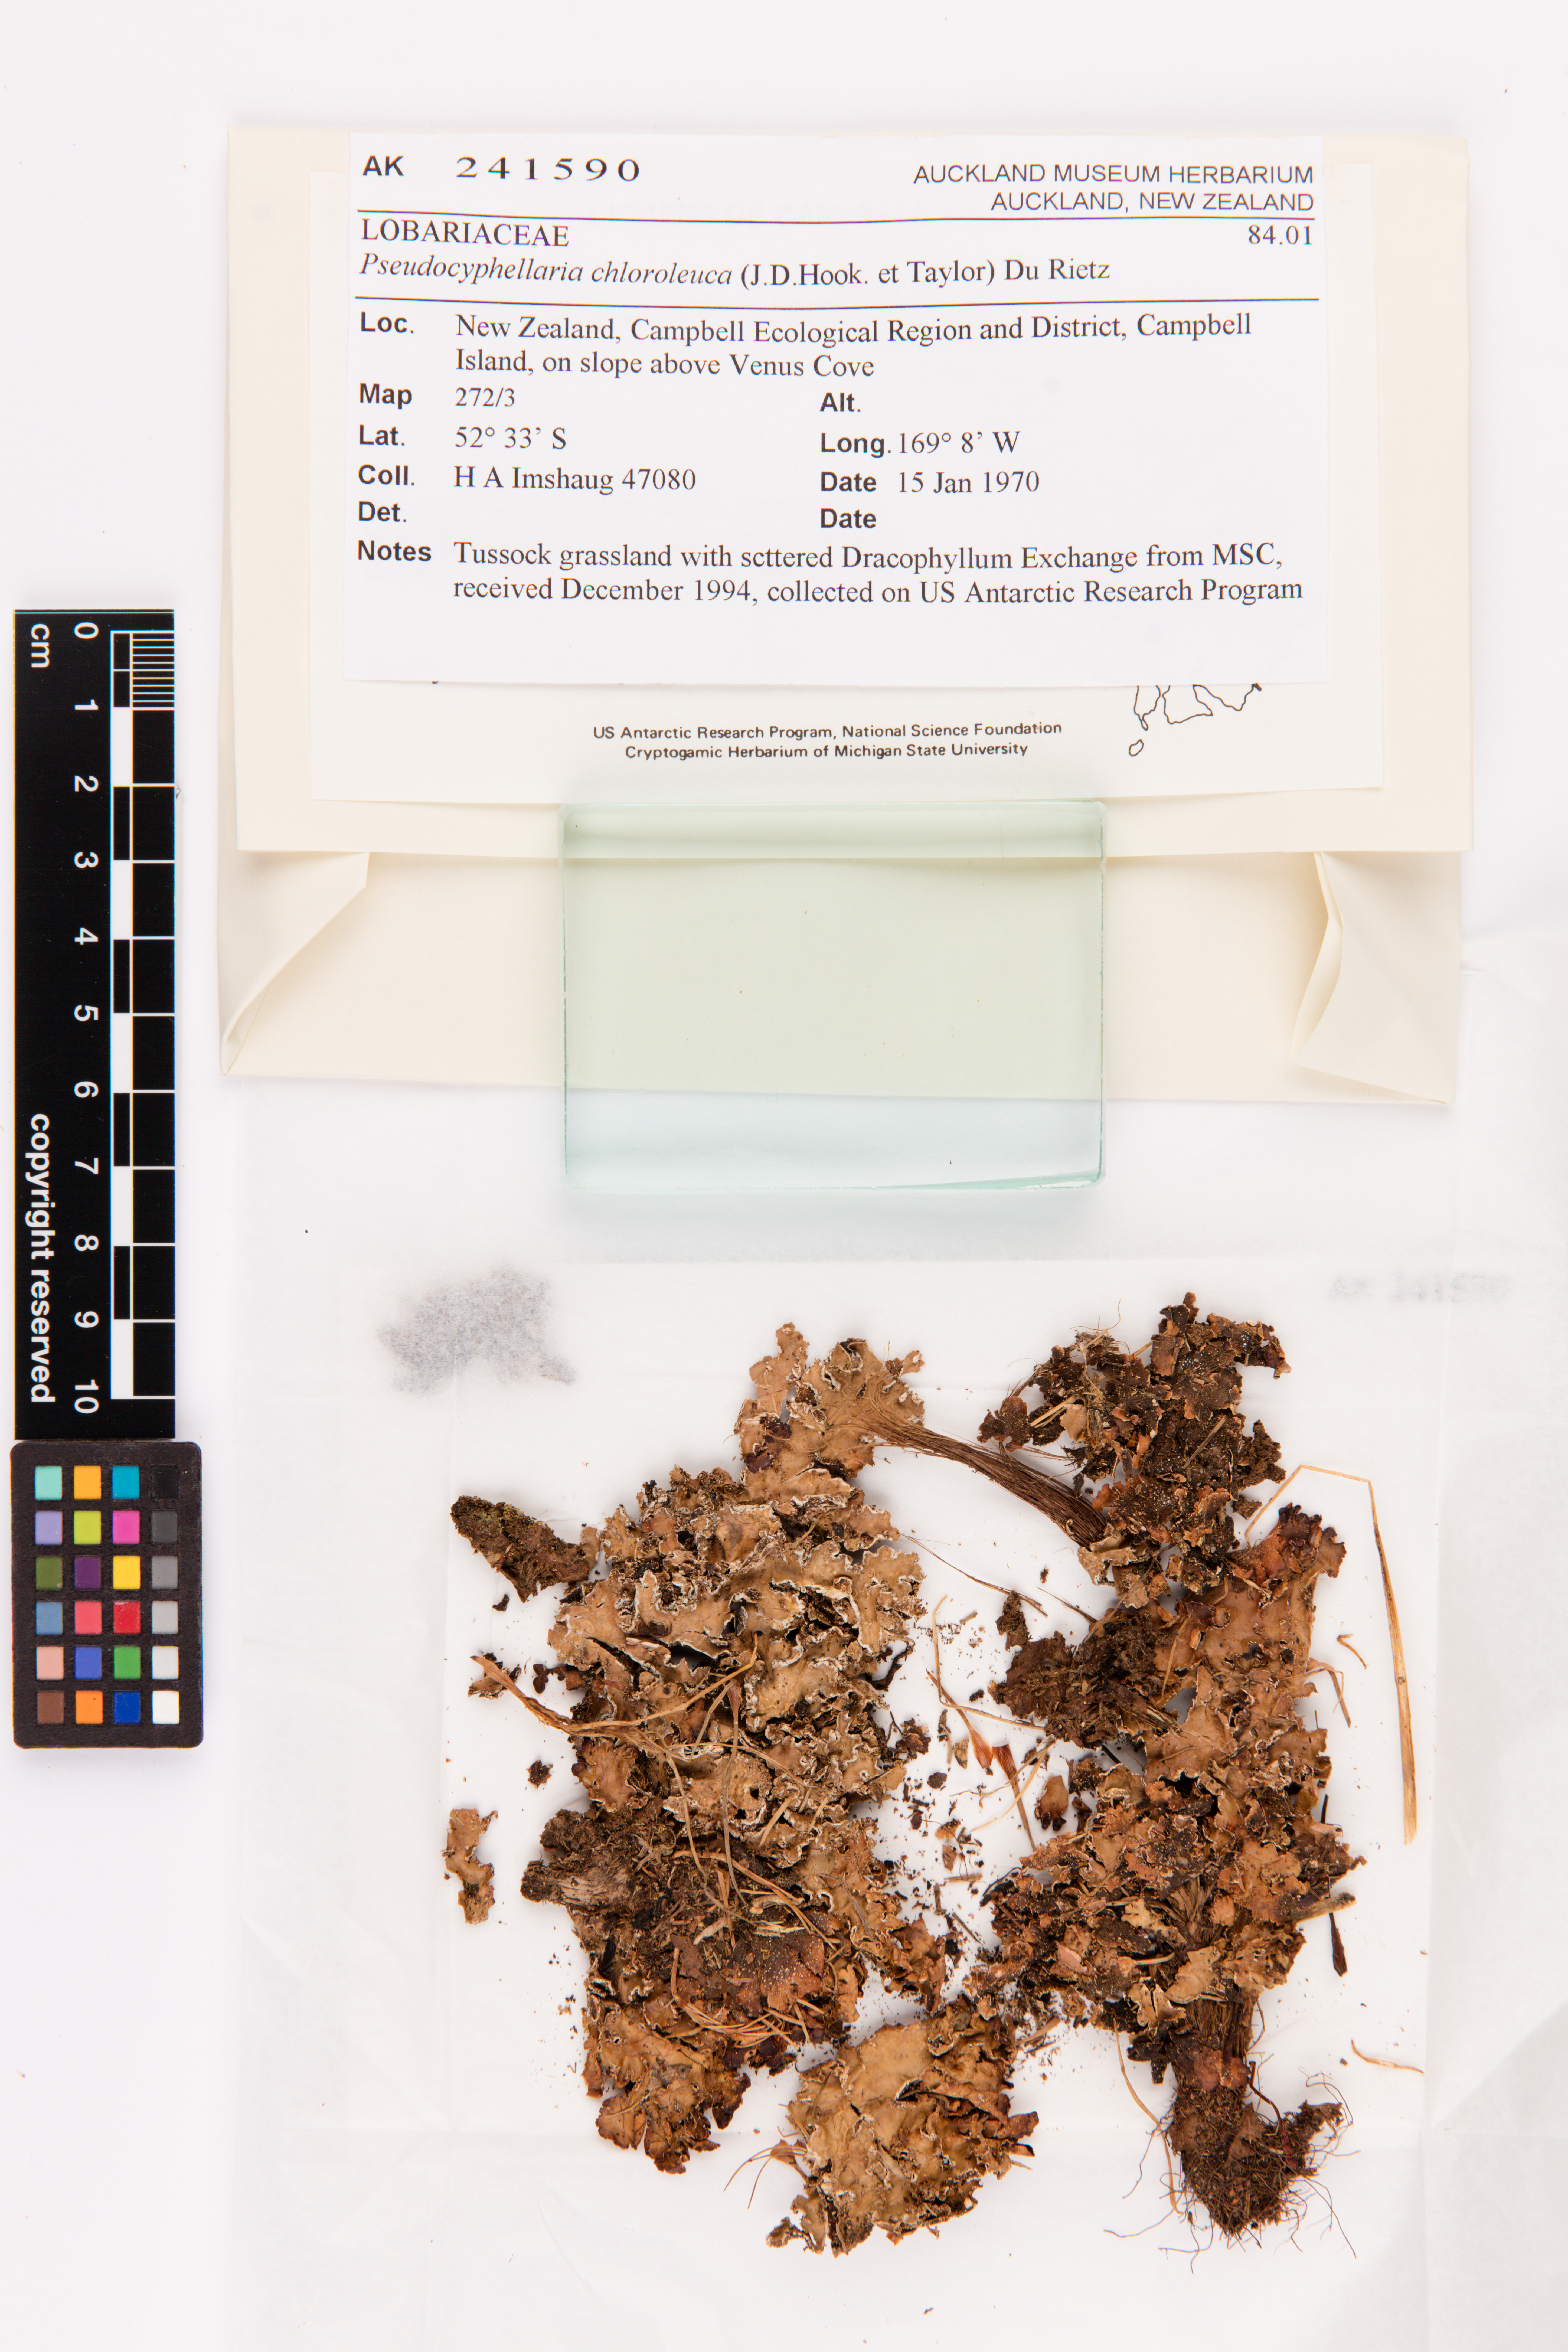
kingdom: Fungi
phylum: Ascomycota
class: Lecanoromycetes
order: Peltigerales
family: Lobariaceae
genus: Pseudocyphellaria
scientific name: Pseudocyphellaria chloroleuca
